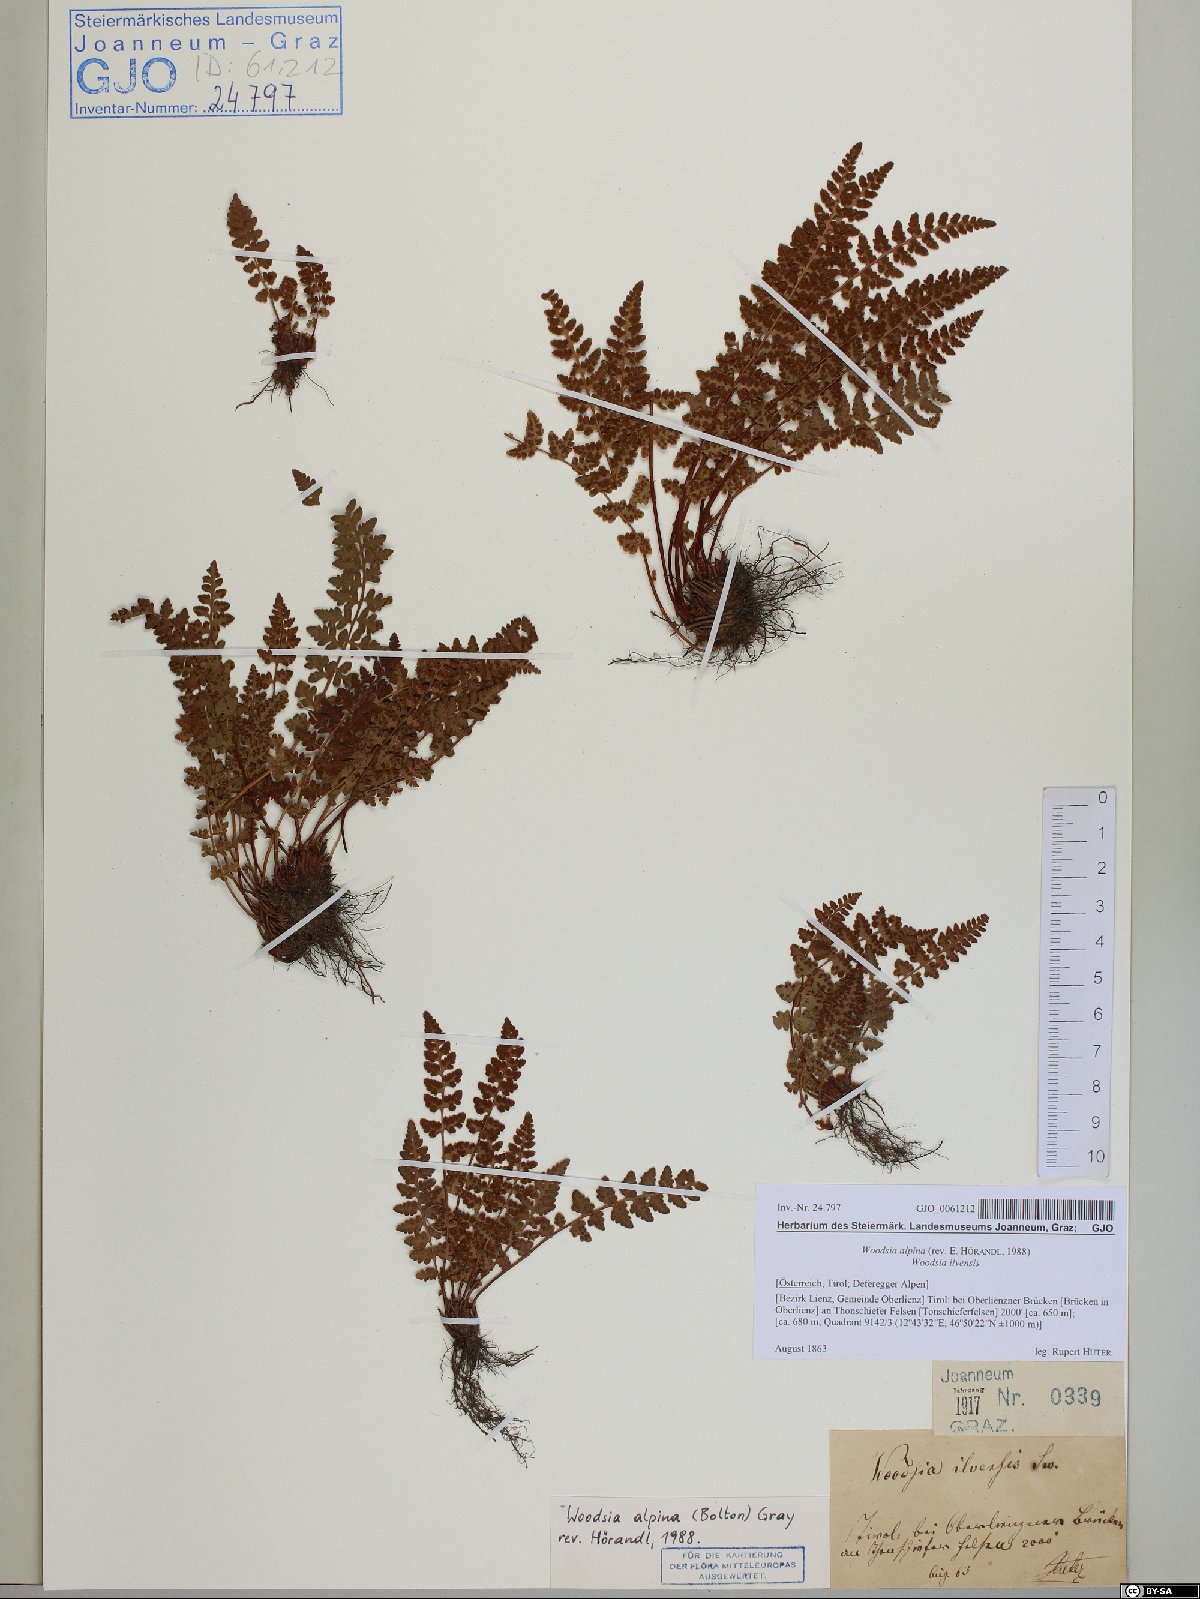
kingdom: Plantae
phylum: Tracheophyta
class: Polypodiopsida
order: Polypodiales
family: Woodsiaceae
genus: Woodsia
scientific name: Woodsia alpina
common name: Alpine woodsia
